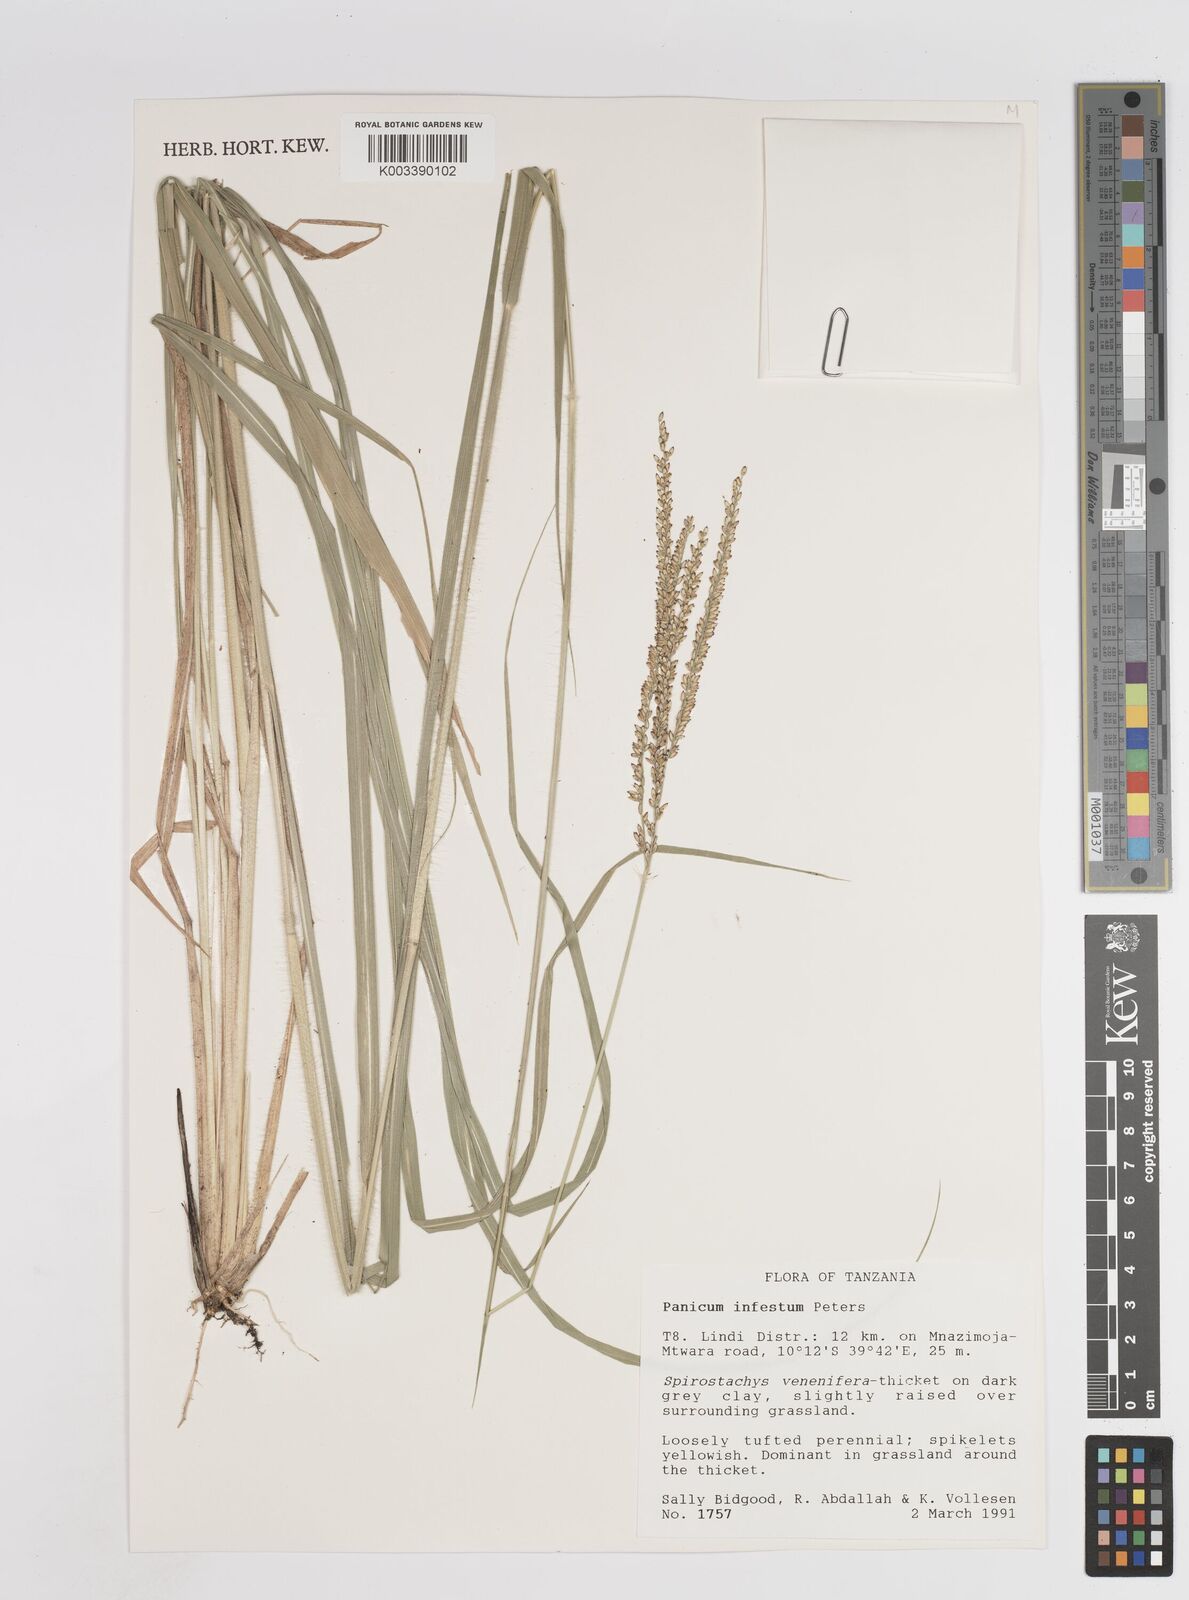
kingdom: Plantae
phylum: Tracheophyta
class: Liliopsida
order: Poales
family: Poaceae
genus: Megathyrsus
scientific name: Megathyrsus infestus
